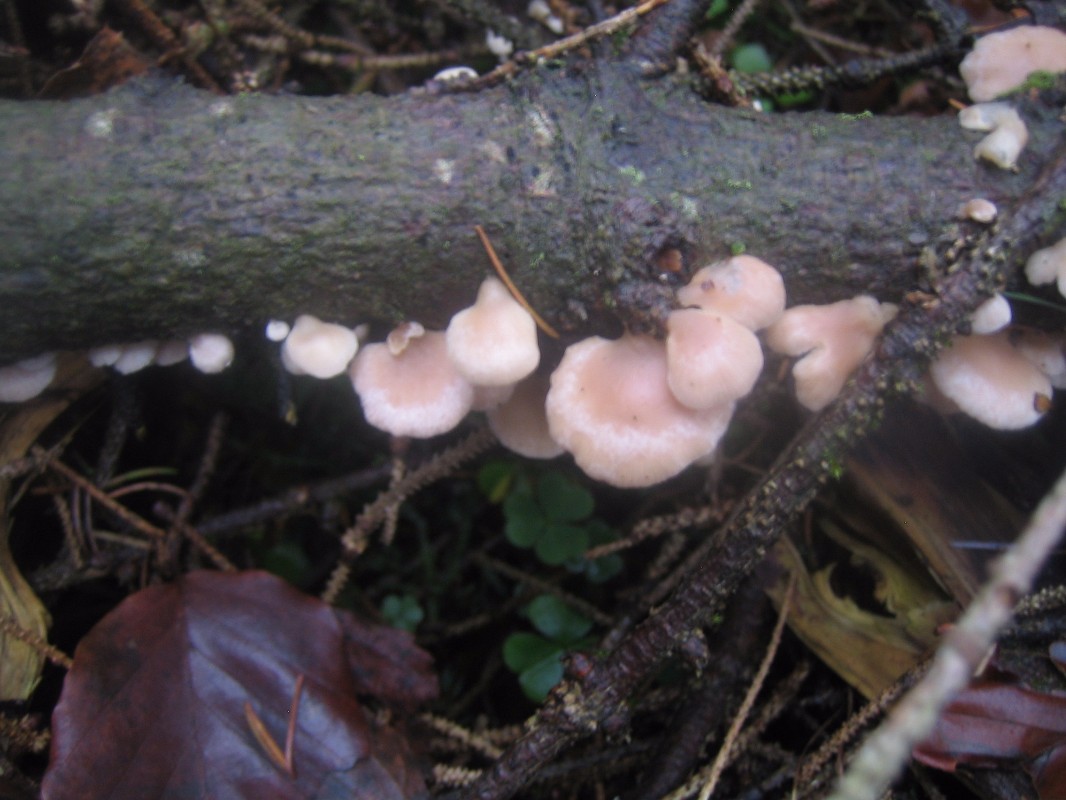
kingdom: Fungi
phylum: Basidiomycota
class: Agaricomycetes
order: Agaricales
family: Mycenaceae
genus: Panellus
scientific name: Panellus mitis
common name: mild epaulethat
